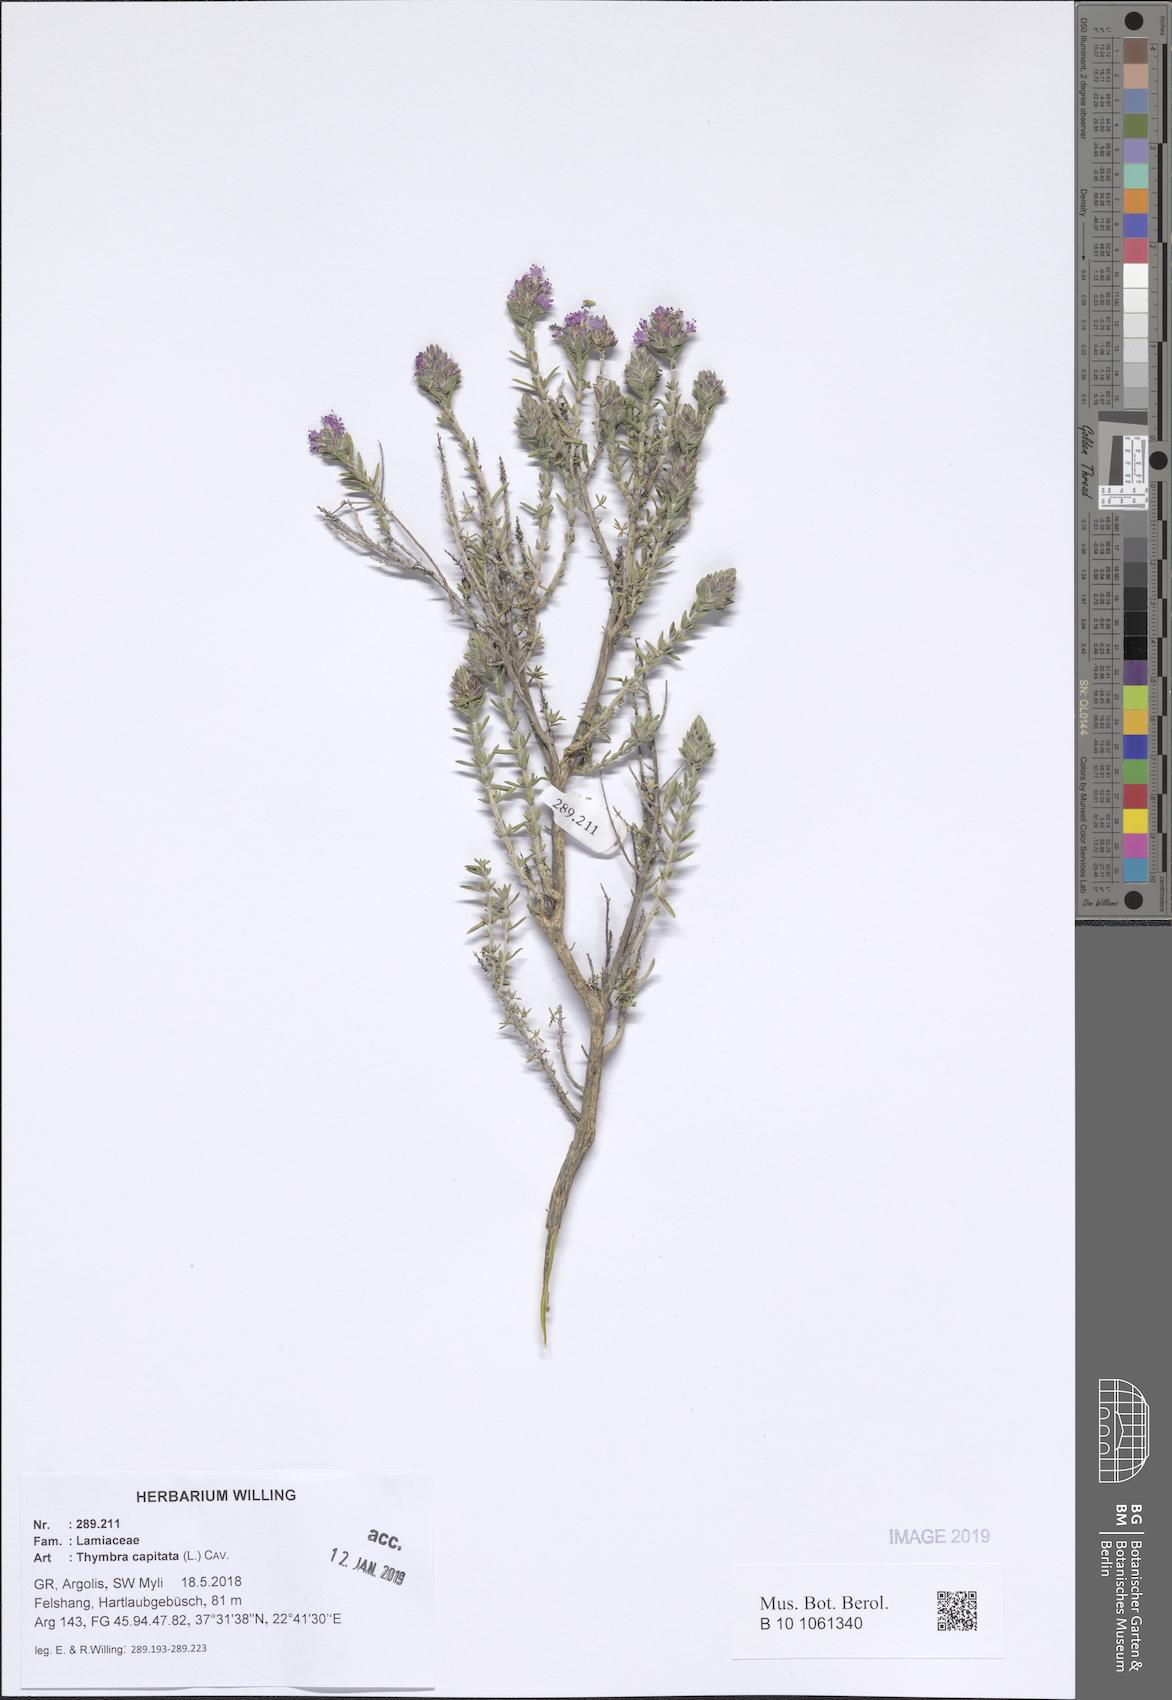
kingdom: Plantae
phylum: Tracheophyta
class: Magnoliopsida
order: Lamiales
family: Lamiaceae
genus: Thymbra
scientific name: Thymbra capitata
